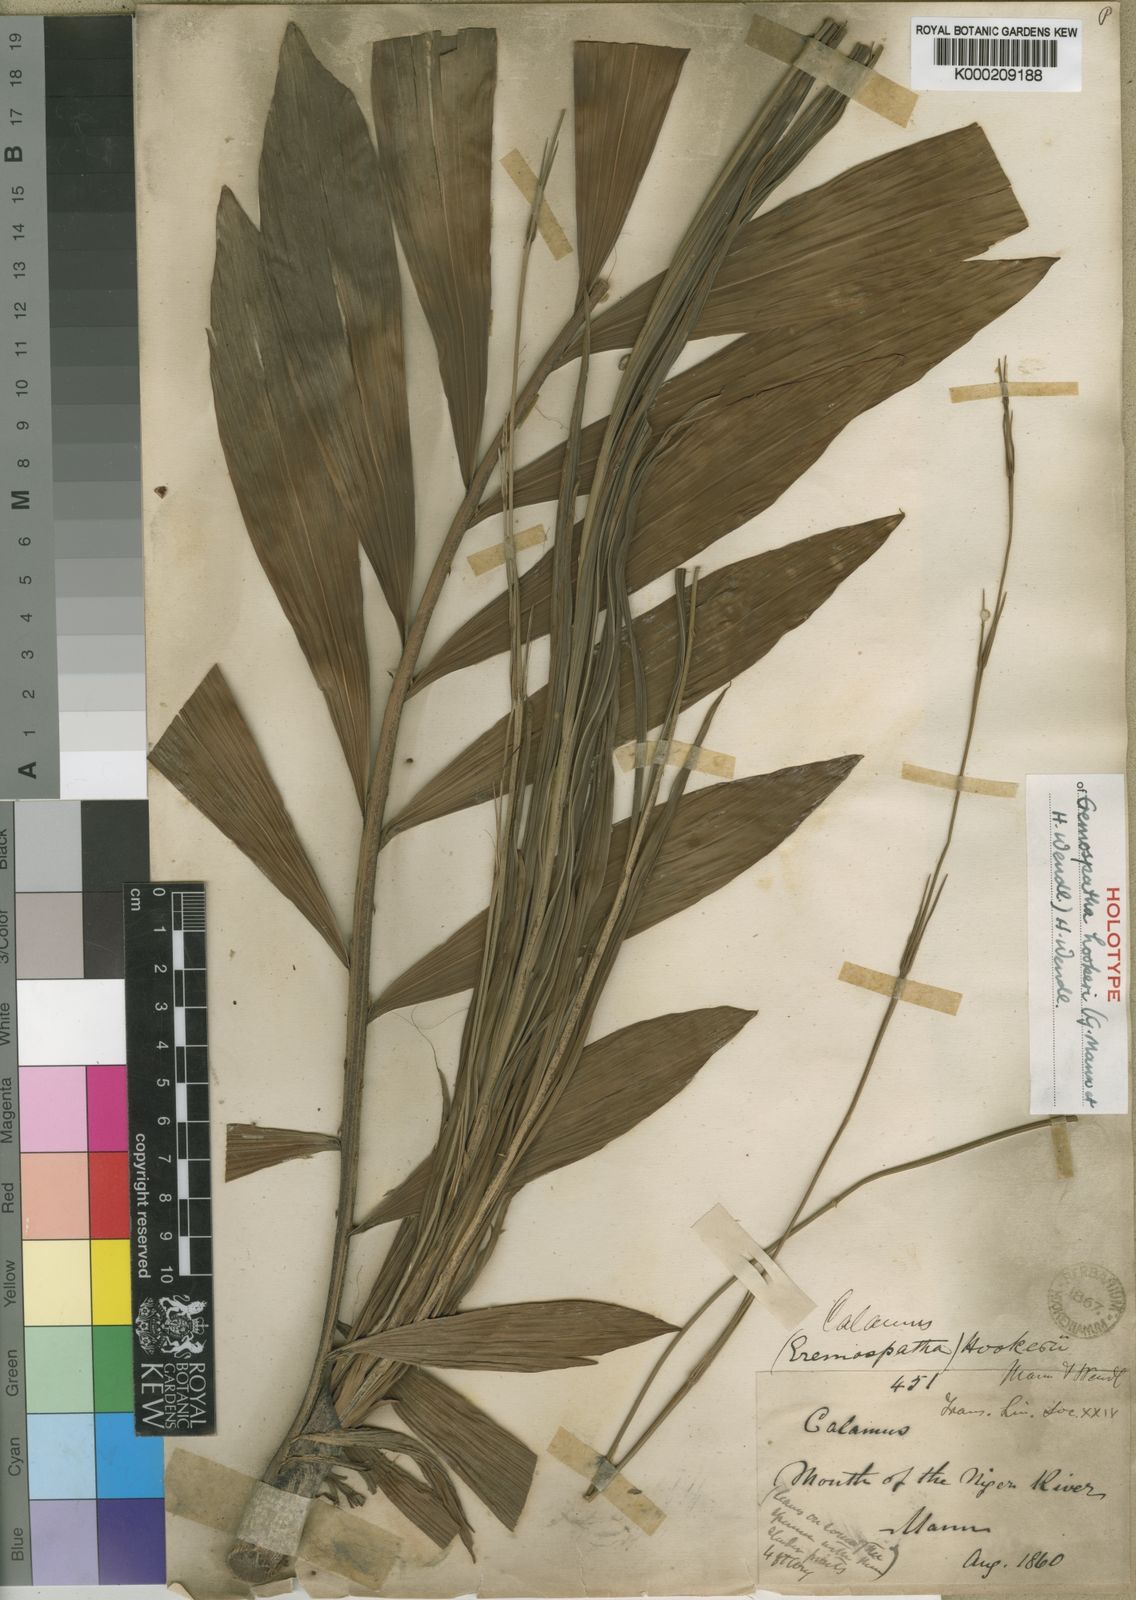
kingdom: Plantae
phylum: Tracheophyta
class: Liliopsida
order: Arecales
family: Arecaceae
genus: Eremospatha
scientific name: Eremospatha hookeri
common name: Rattan
